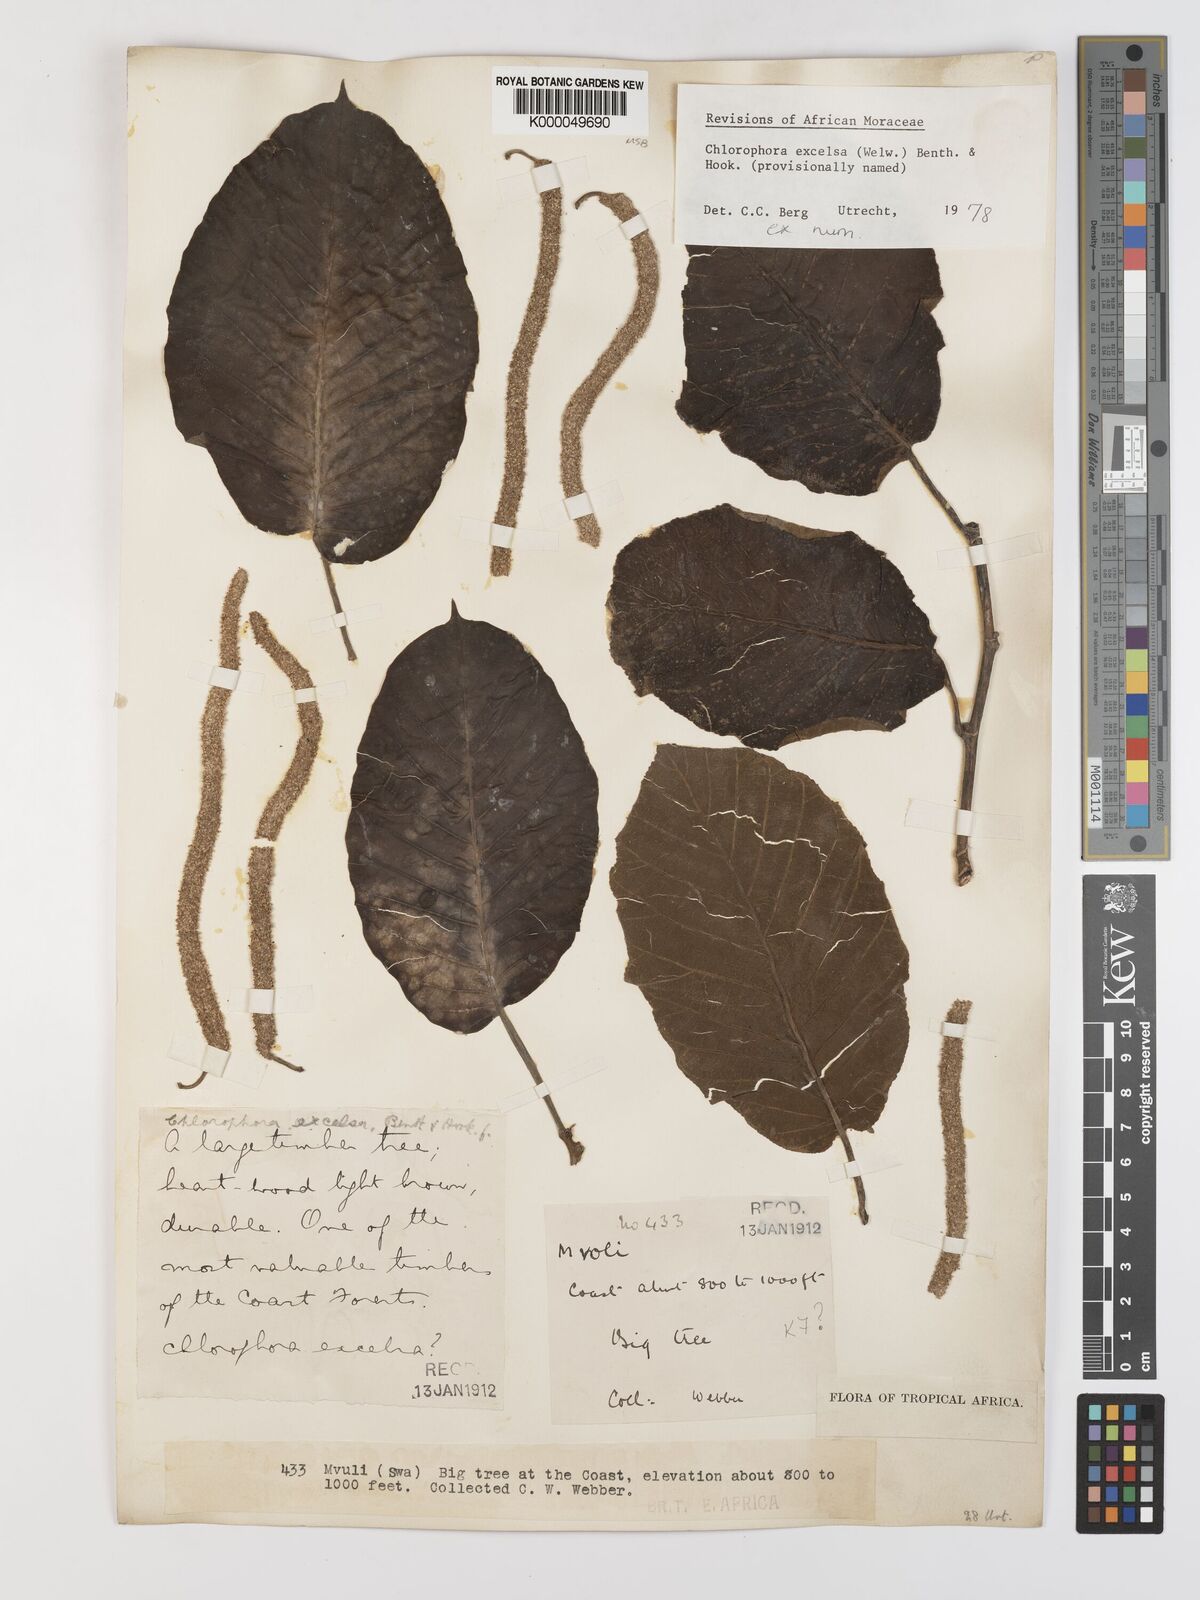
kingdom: Plantae
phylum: Tracheophyta
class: Magnoliopsida
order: Rosales
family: Moraceae
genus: Milicia
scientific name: Milicia excelsa
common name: African teak
